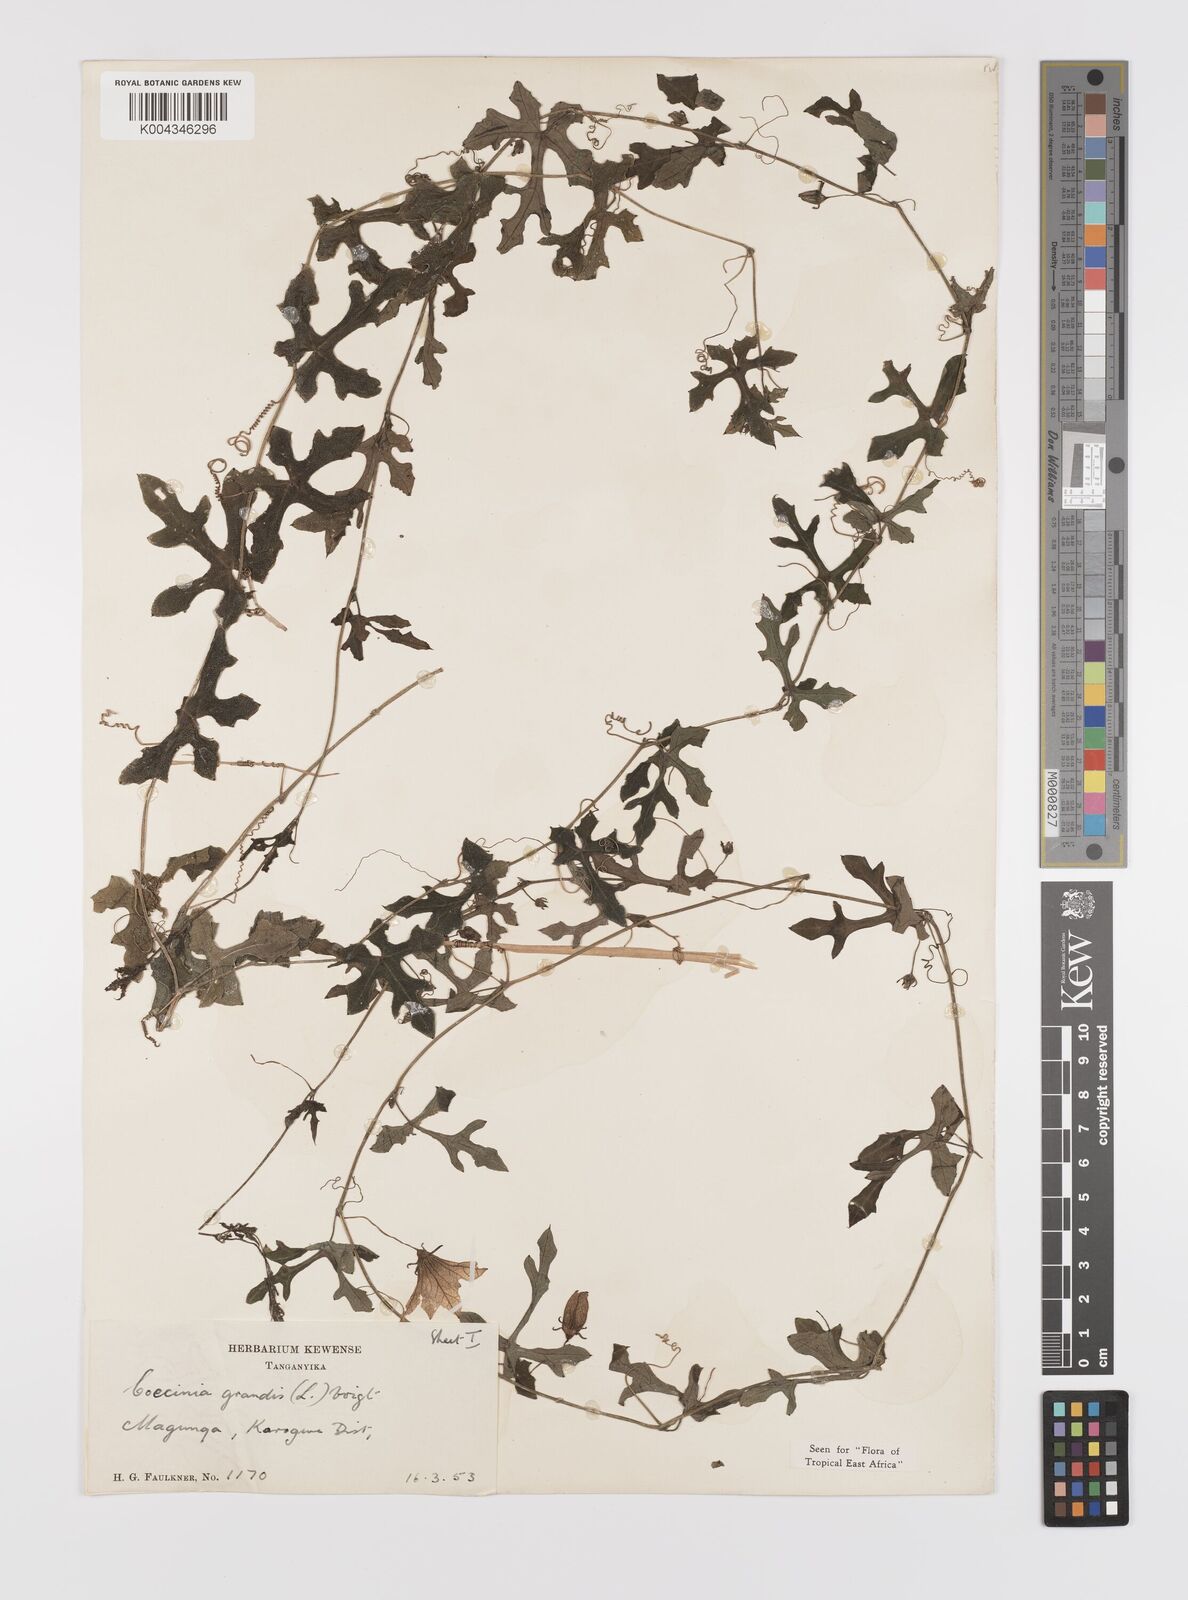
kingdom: Plantae
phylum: Tracheophyta
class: Magnoliopsida
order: Cucurbitales
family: Cucurbitaceae
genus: Coccinia
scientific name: Coccinia grandis
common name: Ivy gourd
